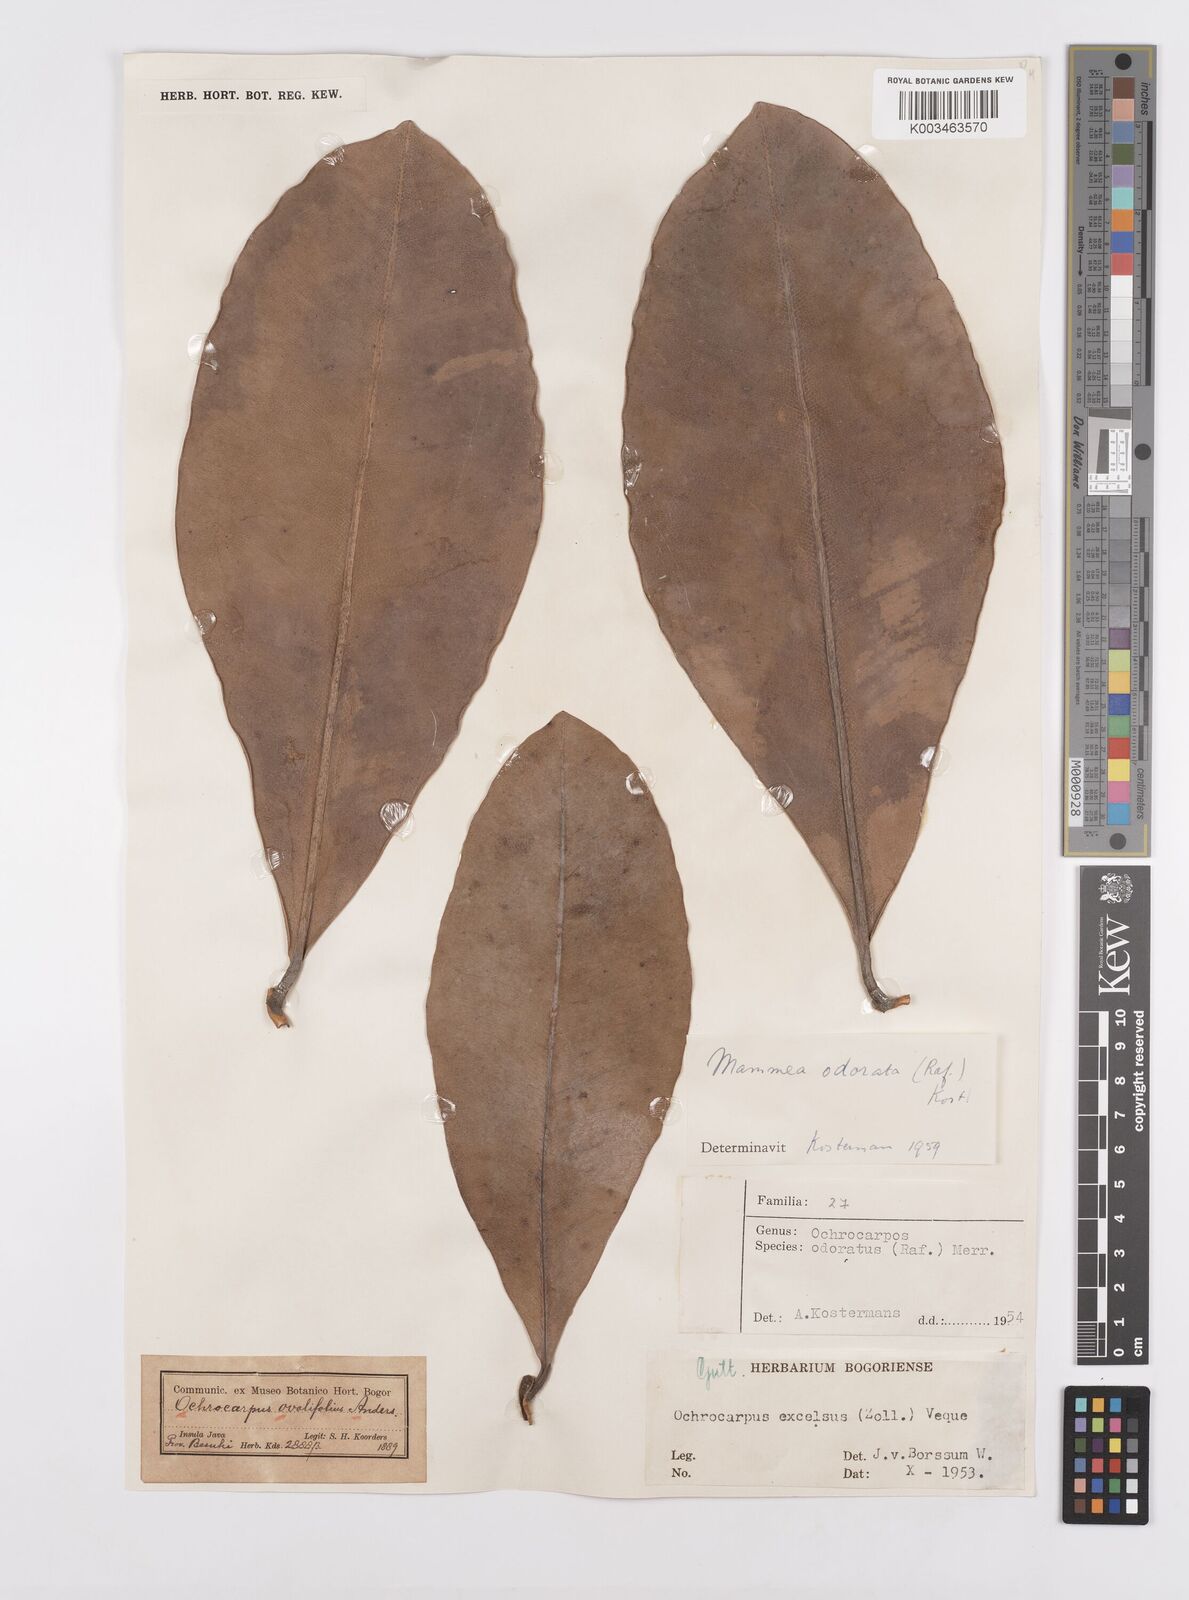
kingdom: Plantae
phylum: Tracheophyta
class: Magnoliopsida
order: Malpighiales
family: Calophyllaceae
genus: Mammea
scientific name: Mammea odorata
